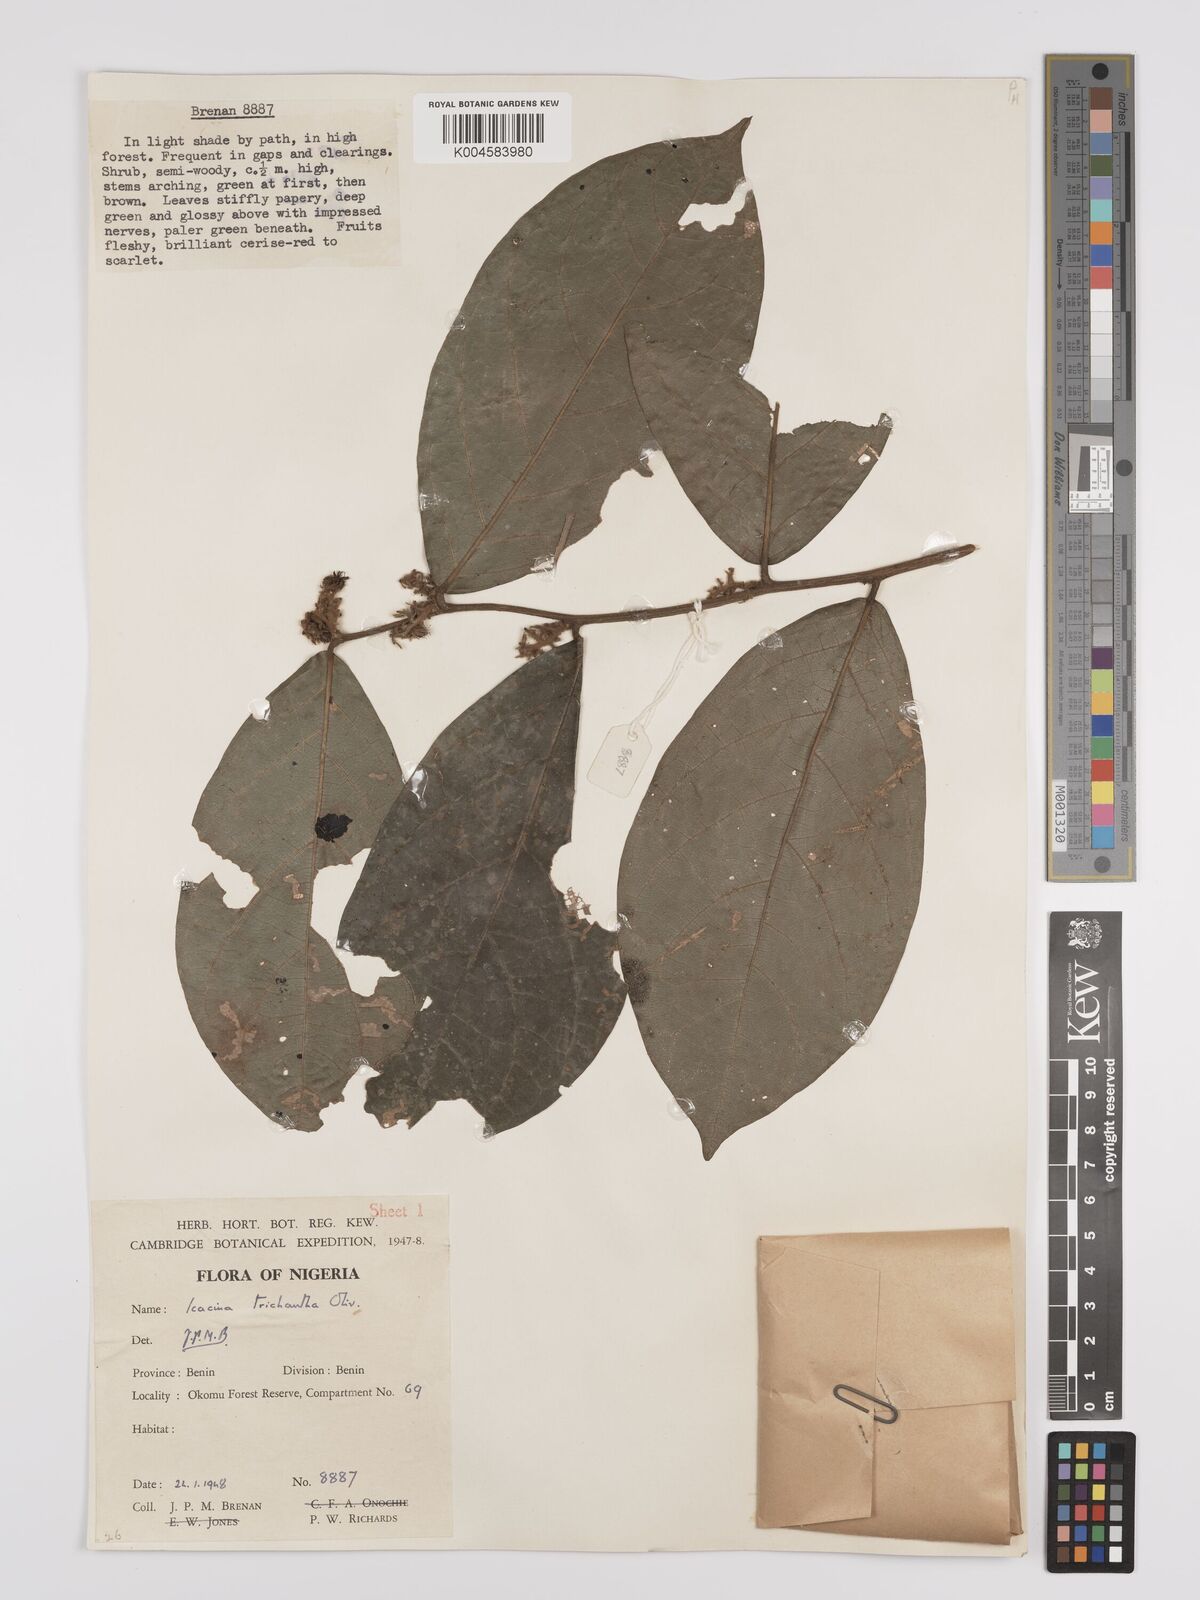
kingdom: Plantae
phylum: Tracheophyta
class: Magnoliopsida
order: Icacinales
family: Icacinaceae
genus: Icacina
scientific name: Icacina trichantha
